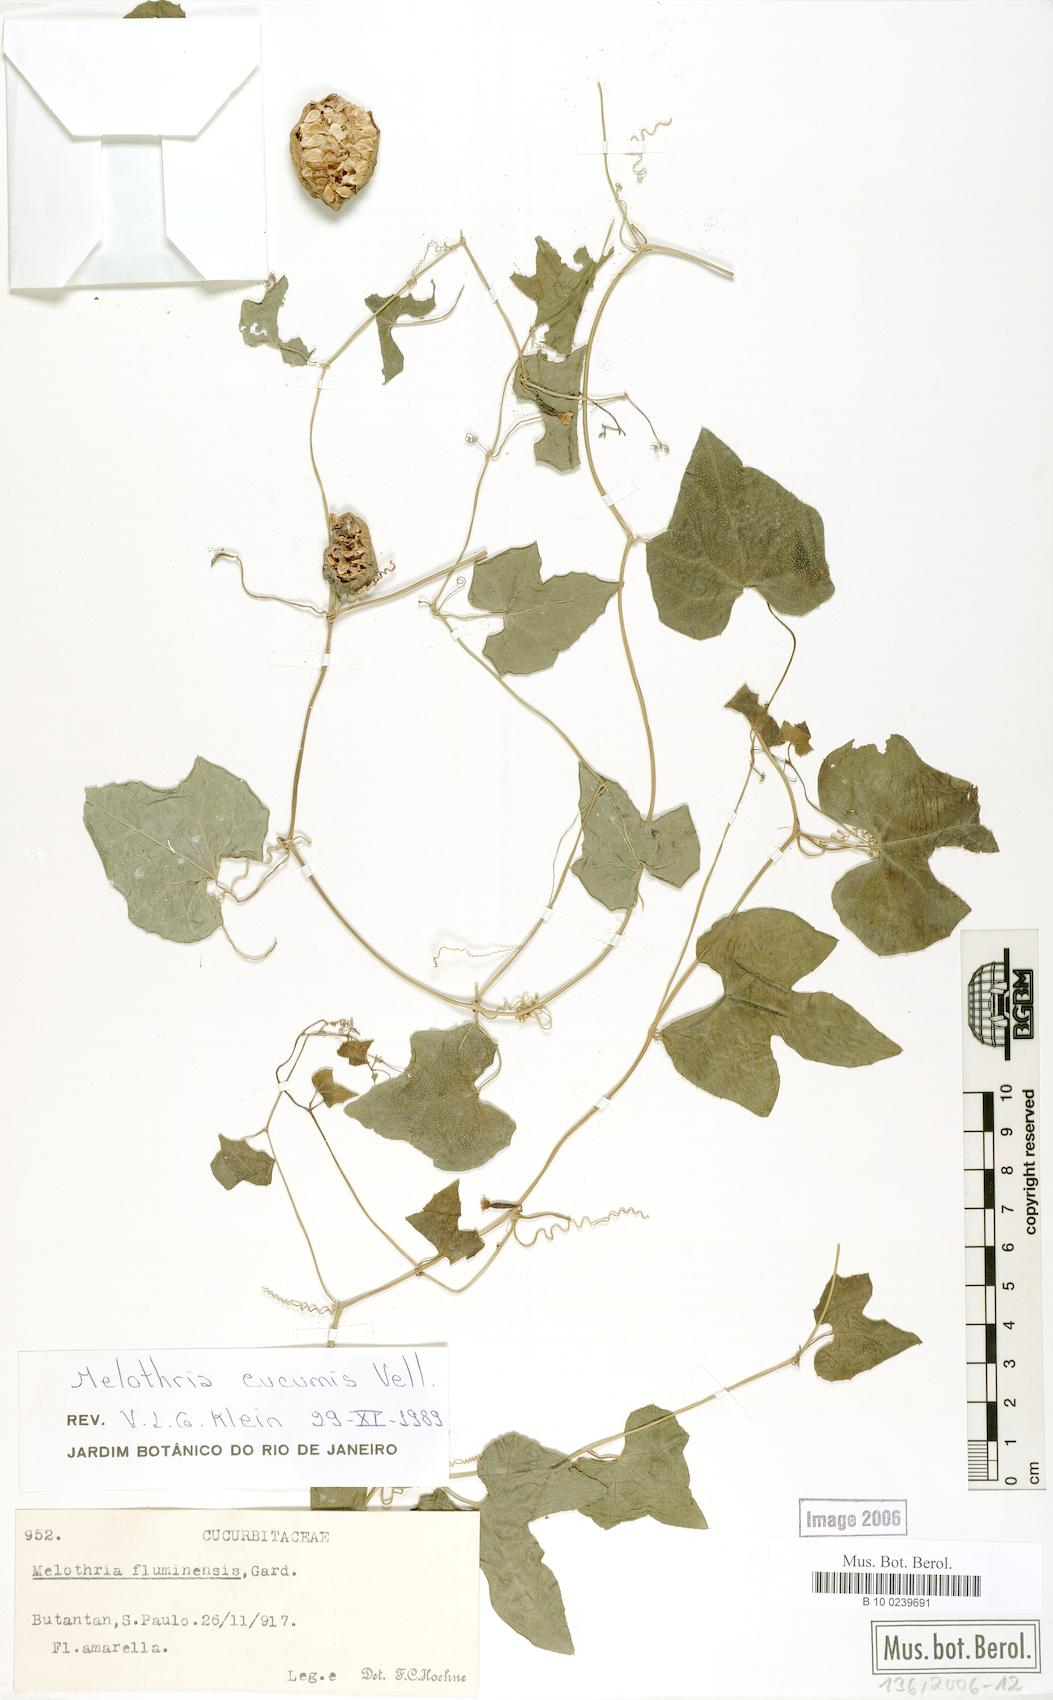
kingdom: Plantae
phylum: Tracheophyta
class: Magnoliopsida
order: Cucurbitales
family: Cucurbitaceae
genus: Melothria
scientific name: Melothria cucumis
